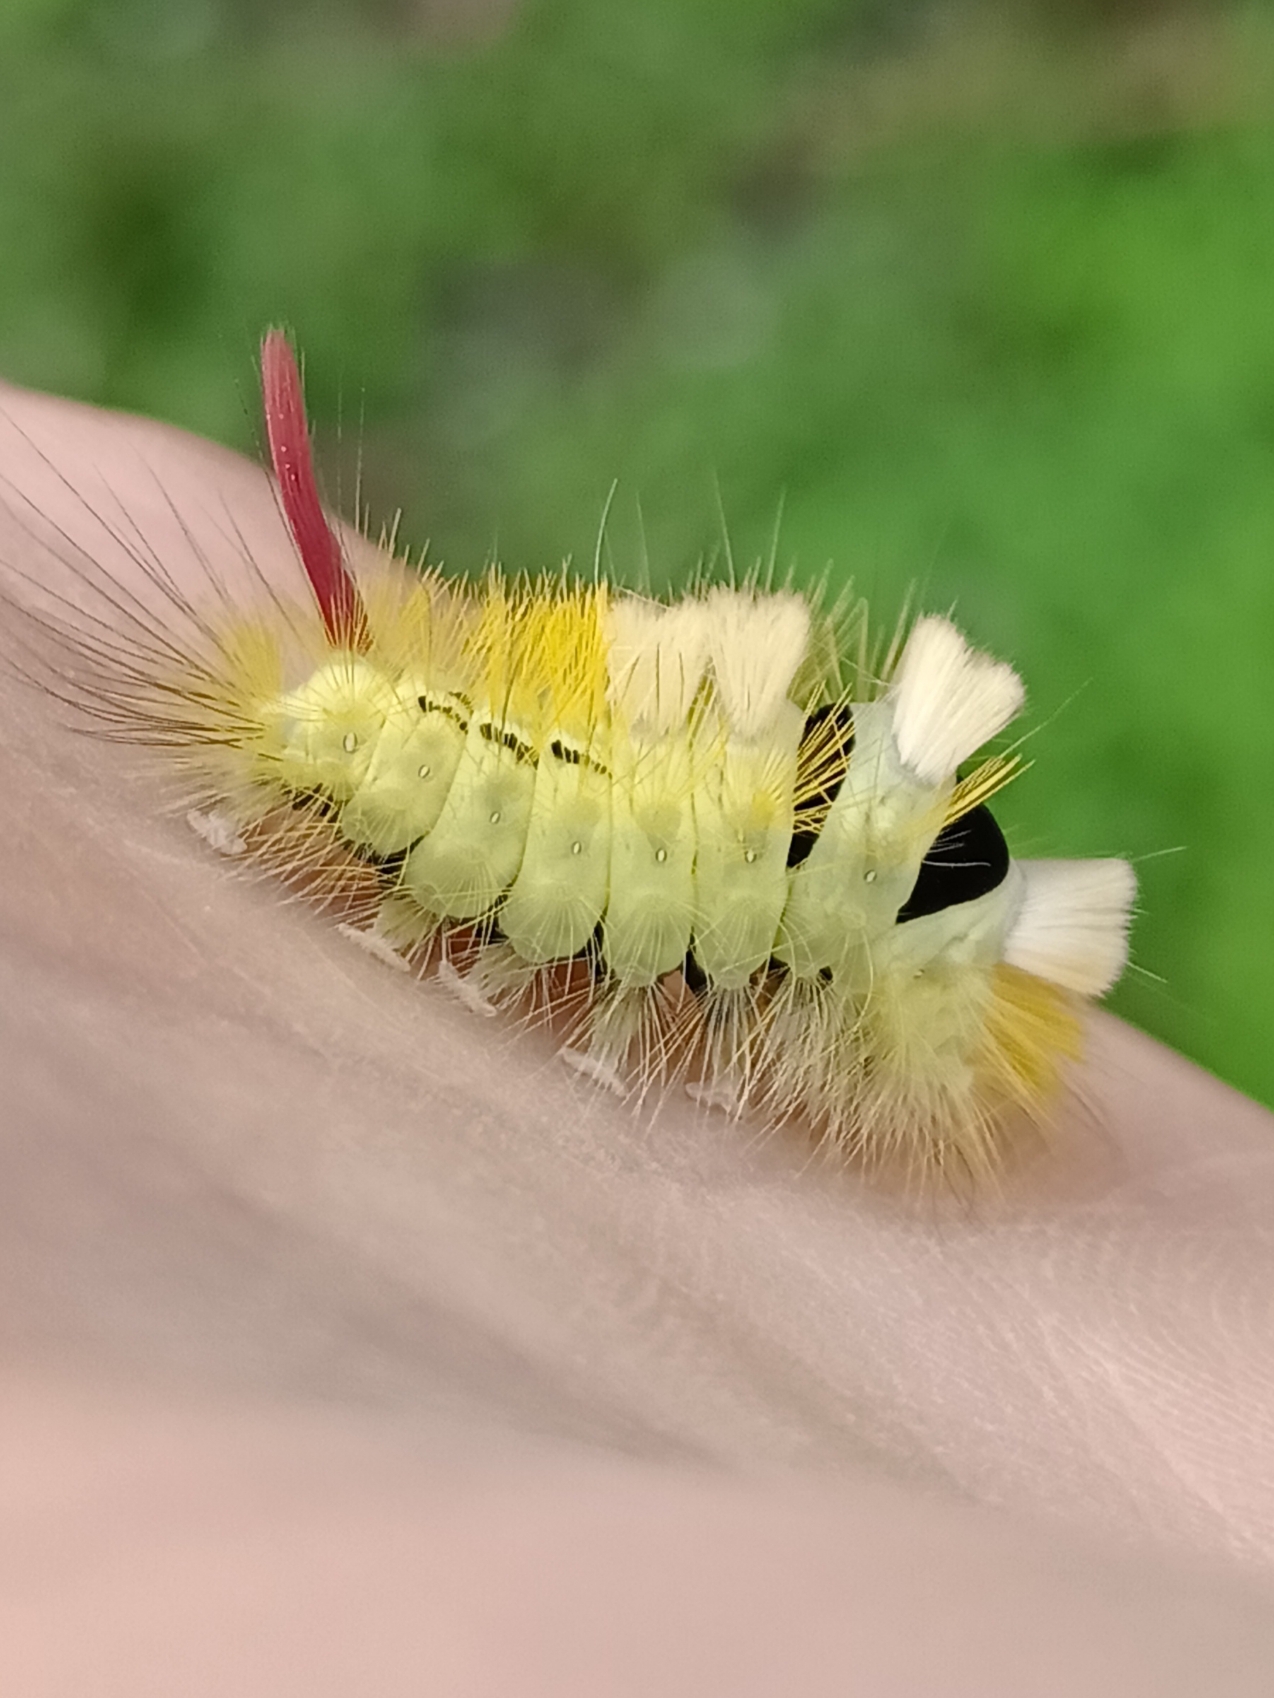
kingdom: Animalia
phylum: Arthropoda
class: Insecta
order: Lepidoptera
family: Erebidae
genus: Calliteara
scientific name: Calliteara pudibunda
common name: Bøgenonne
